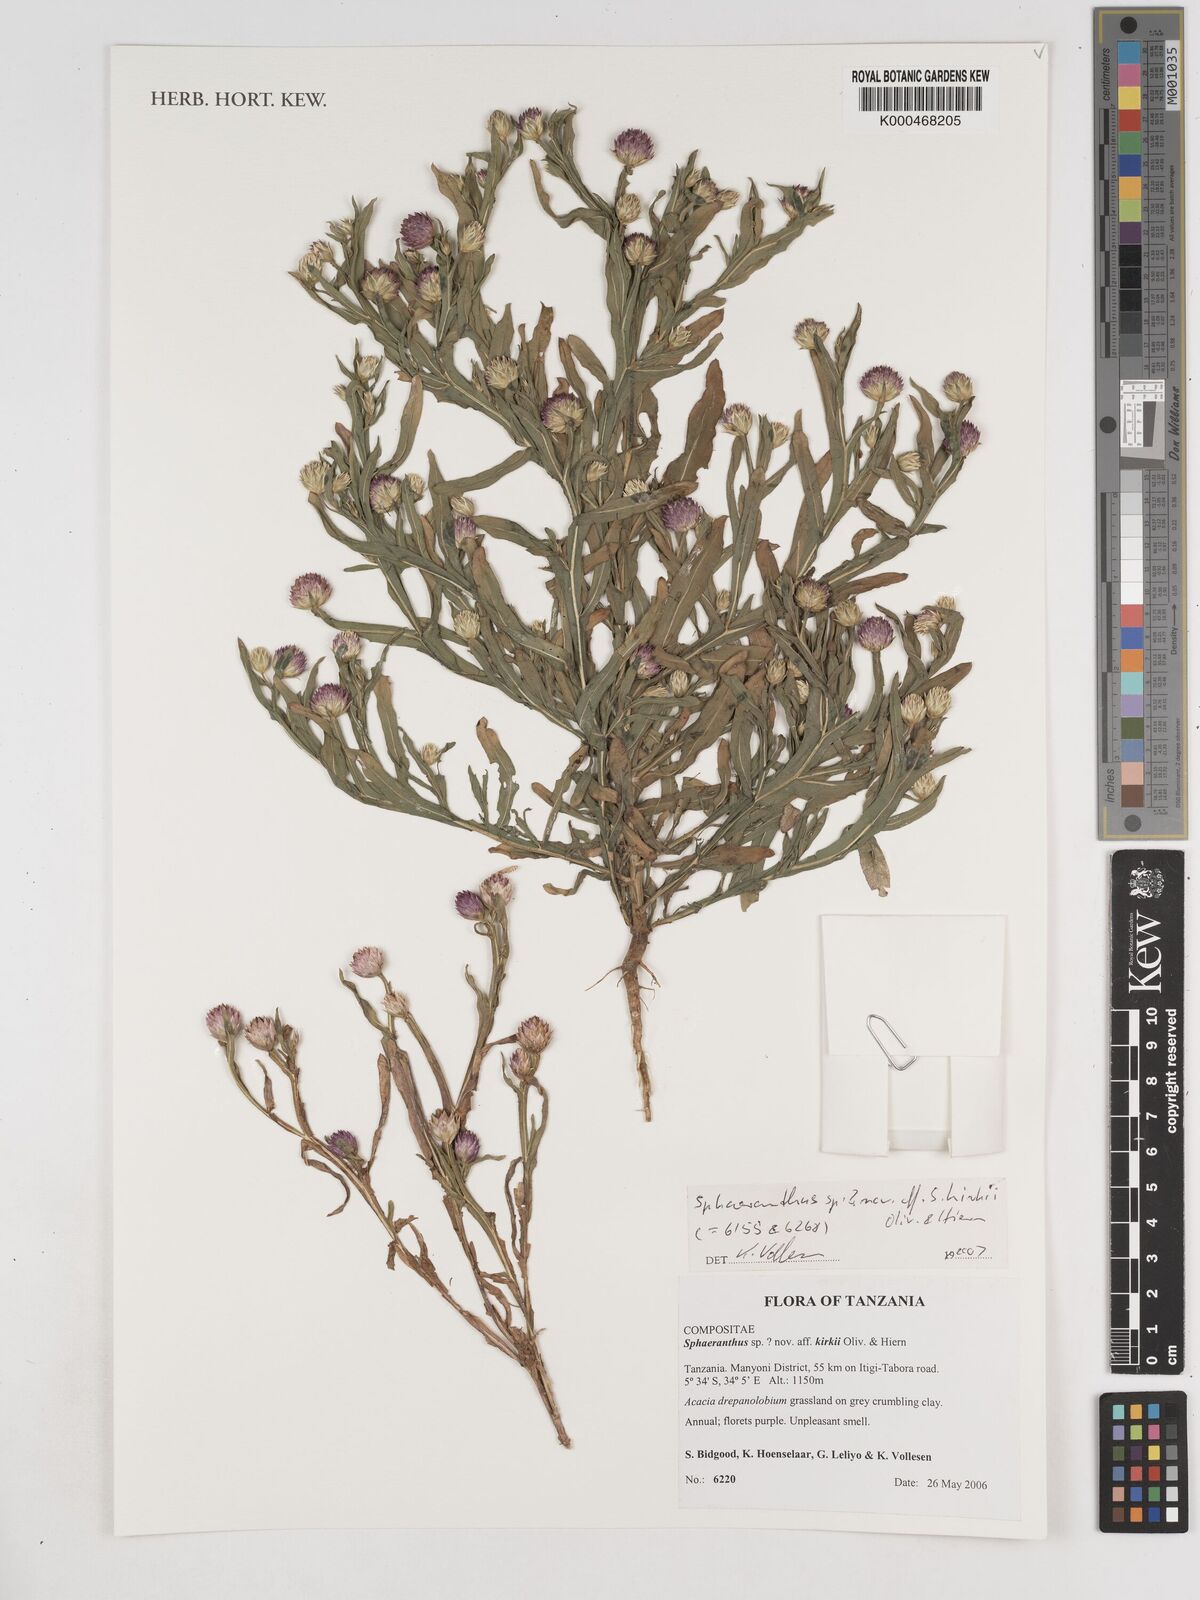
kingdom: Plantae
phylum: Tracheophyta
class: Magnoliopsida
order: Asterales
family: Asteraceae
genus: Sphaeranthus
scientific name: Sphaeranthus
